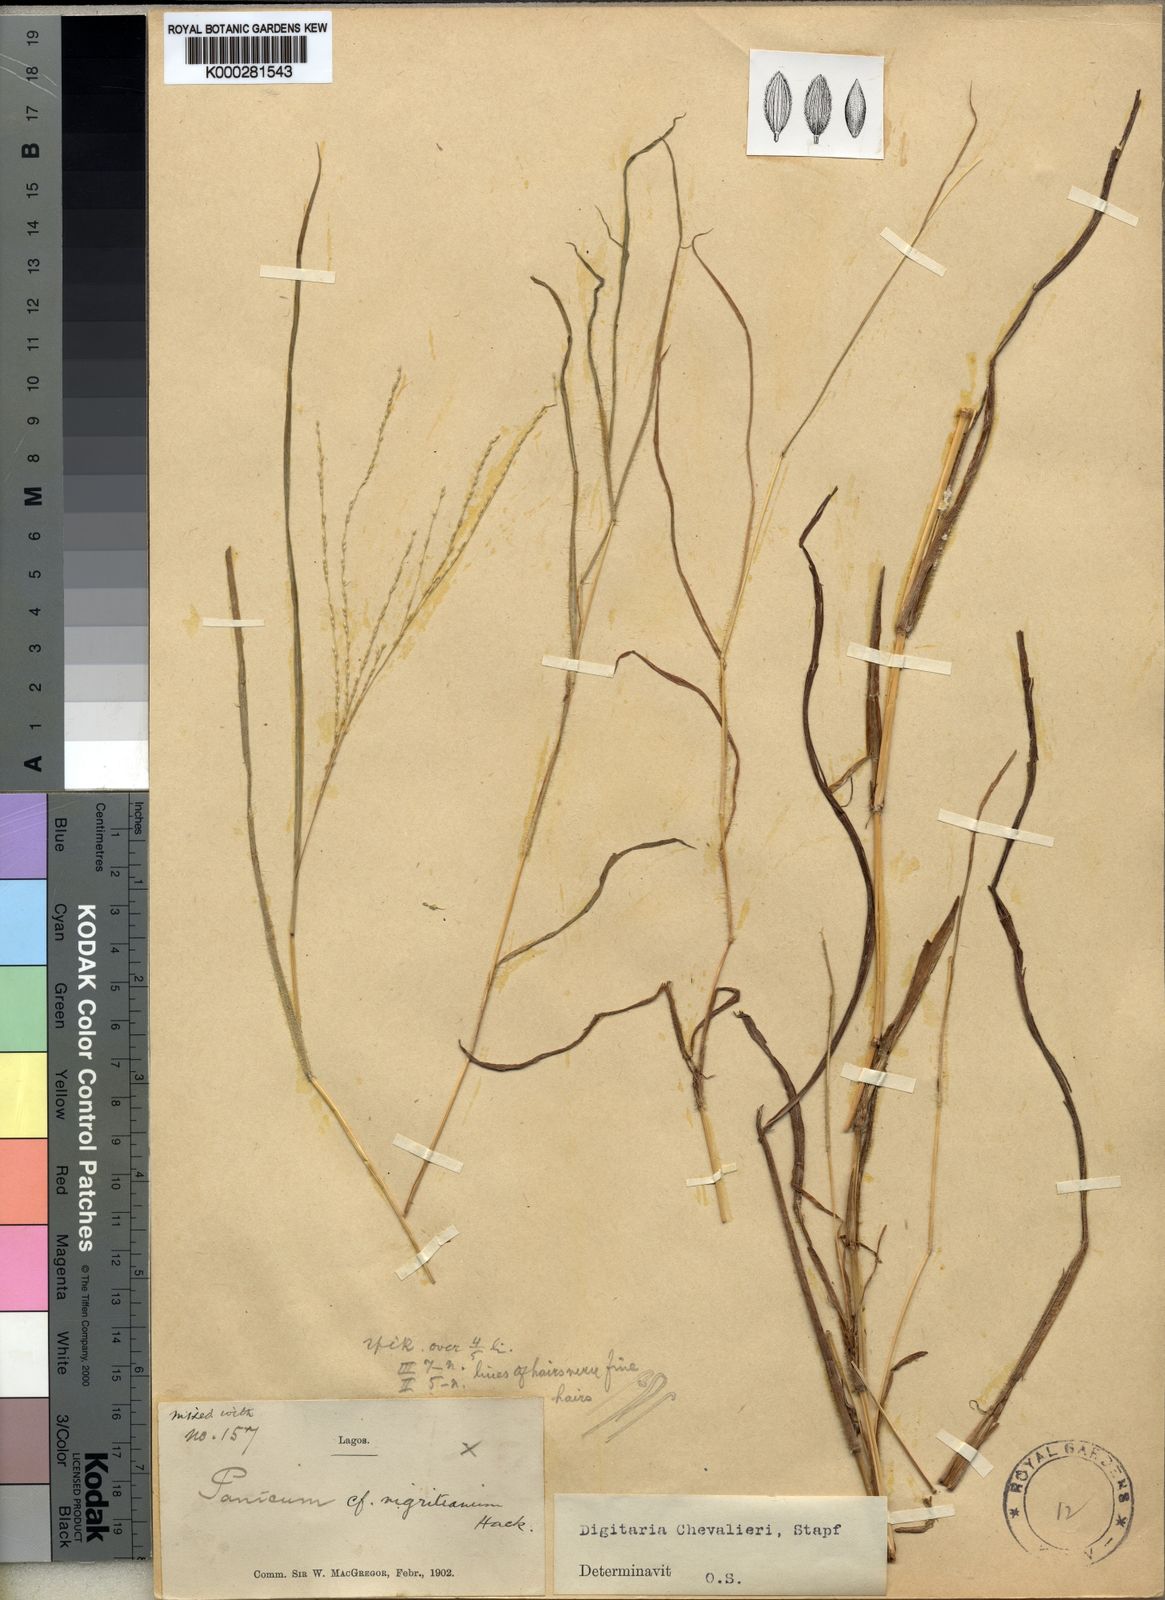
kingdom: Plantae
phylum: Tracheophyta
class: Liliopsida
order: Poales
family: Poaceae
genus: Digitaria
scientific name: Digitaria leptorhachis
